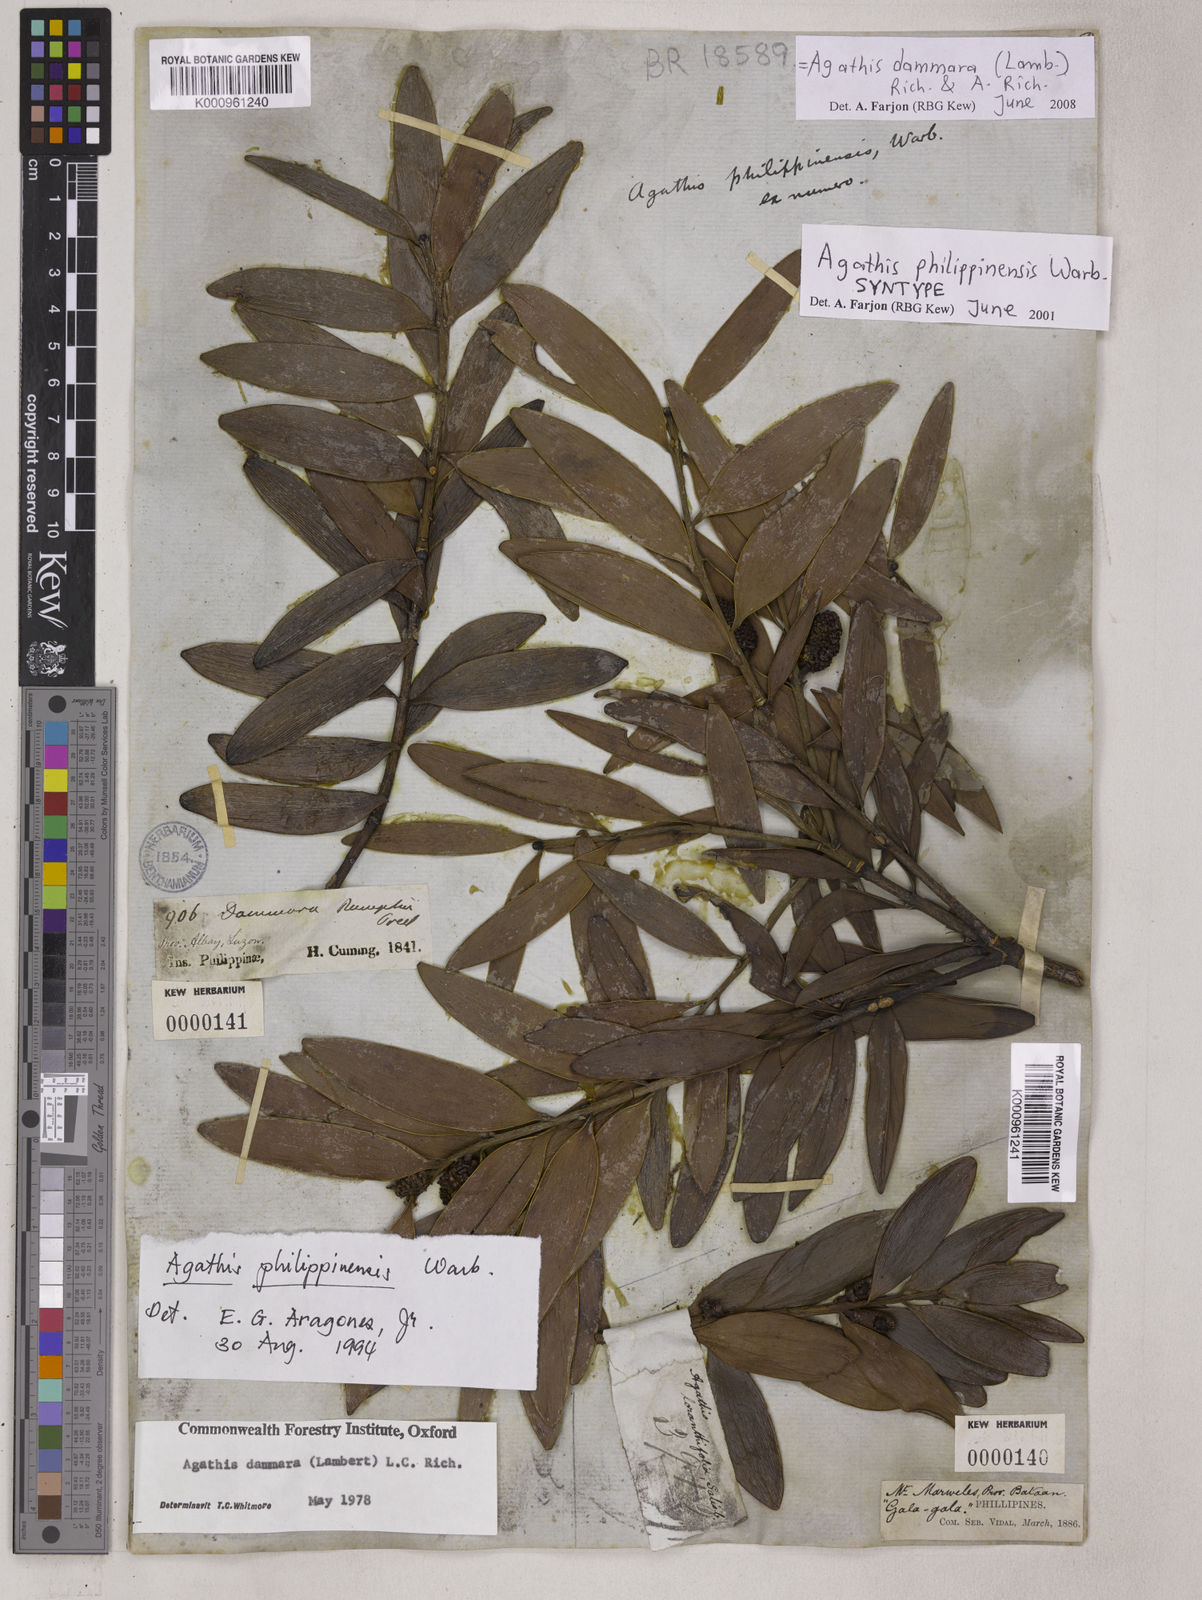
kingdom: Plantae
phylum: Tracheophyta
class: Pinopsida
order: Pinales
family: Araucariaceae
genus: Agathis
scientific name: Agathis
